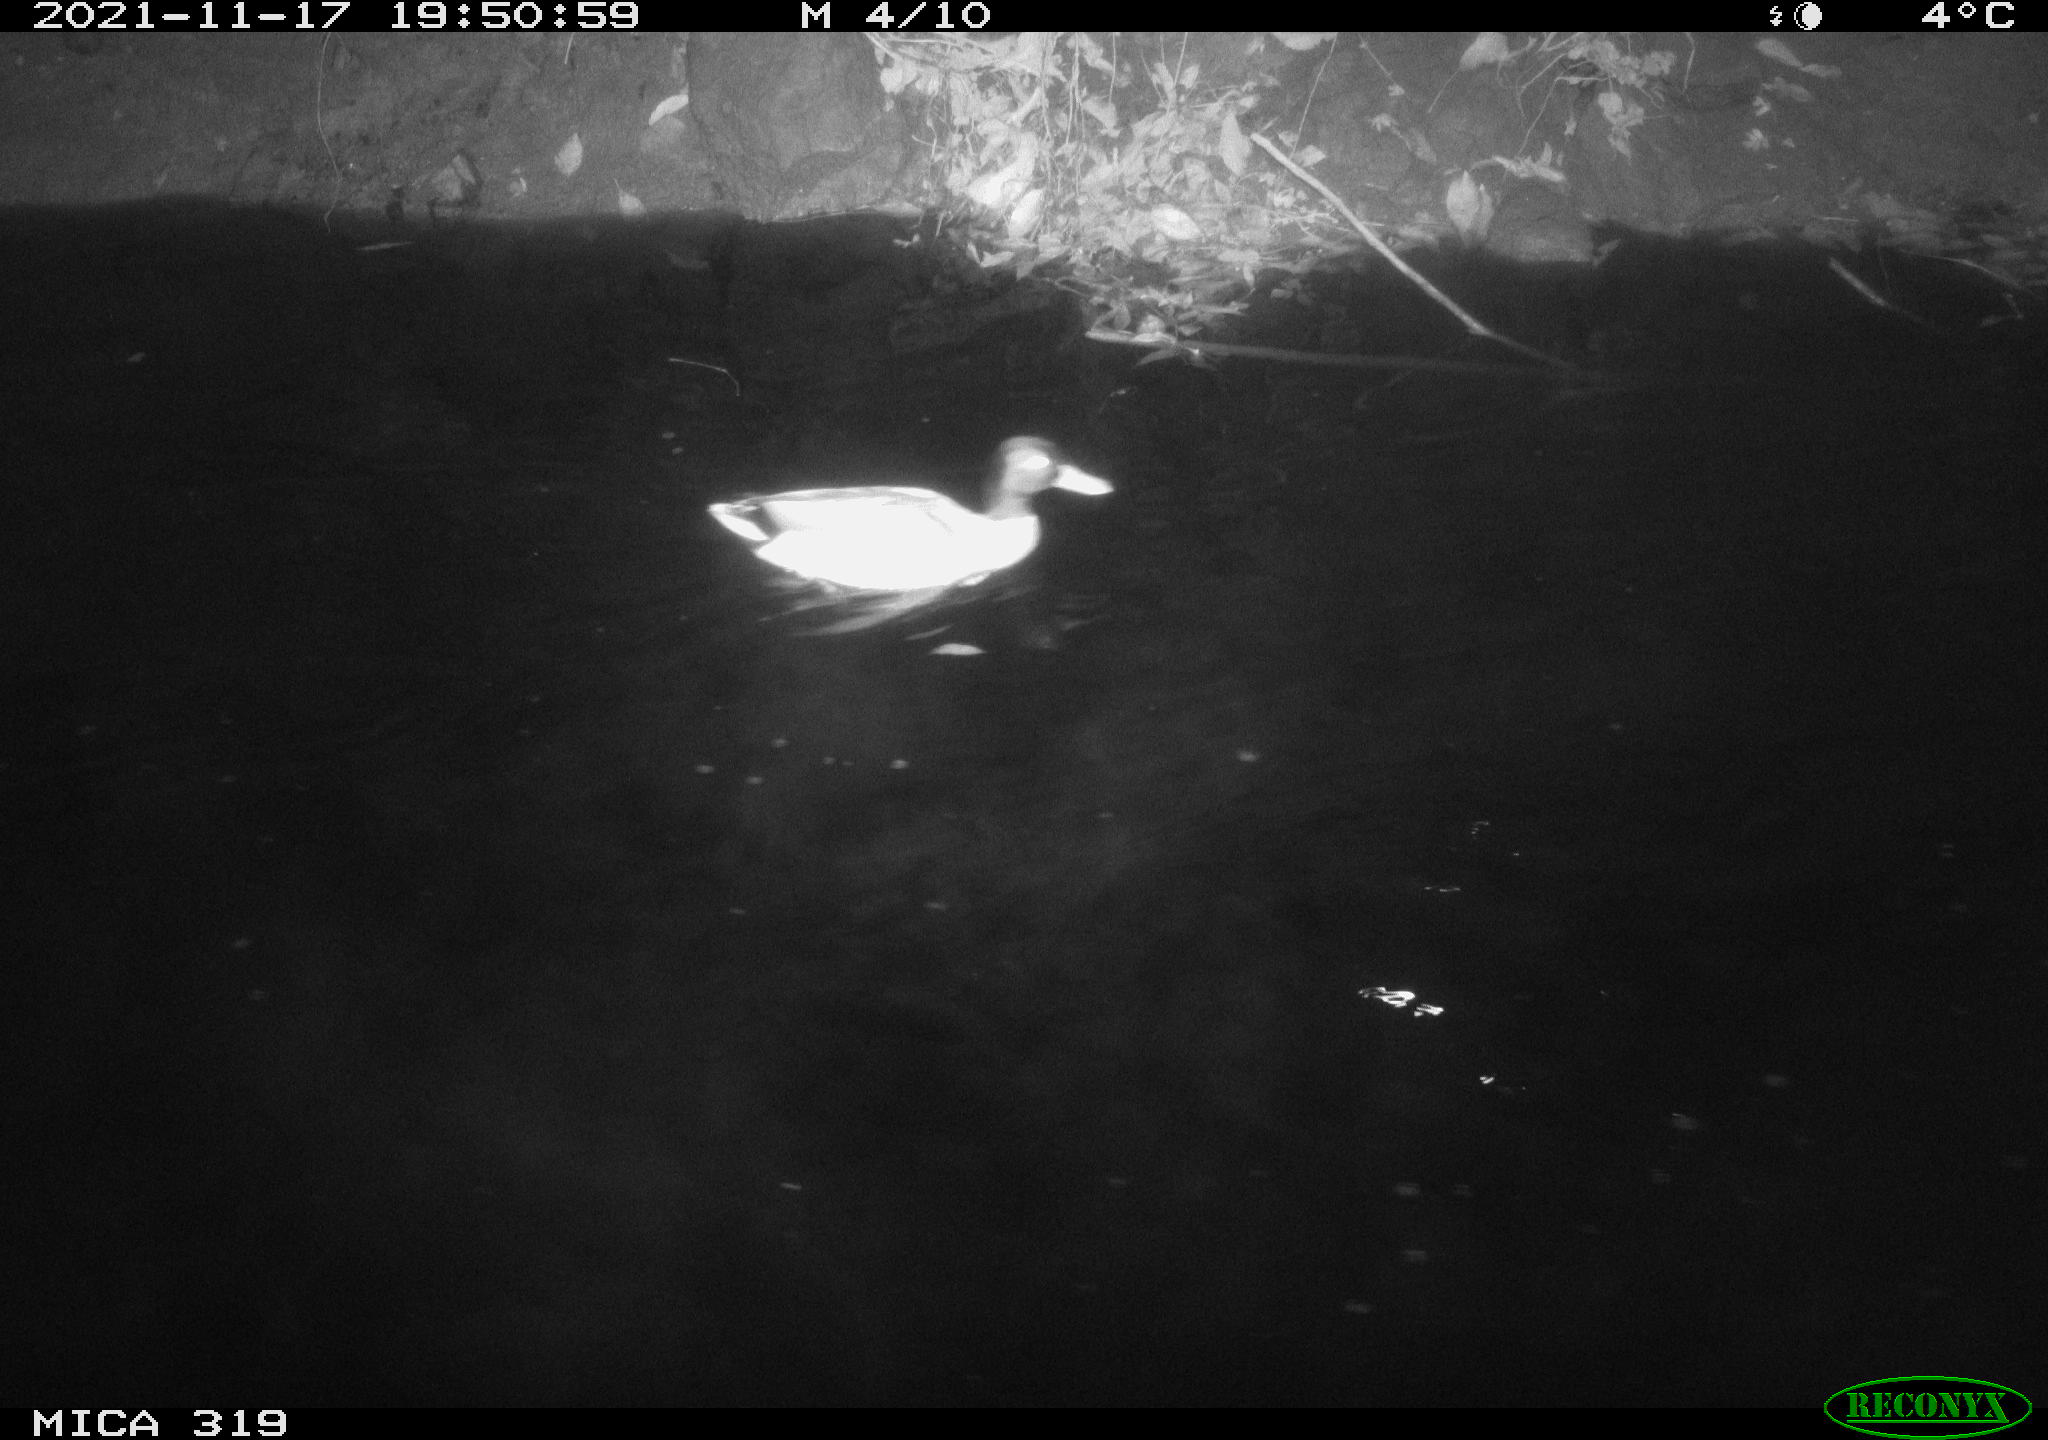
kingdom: Animalia
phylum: Chordata
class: Aves
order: Anseriformes
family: Anatidae
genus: Anas
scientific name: Anas platyrhynchos
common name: Mallard
